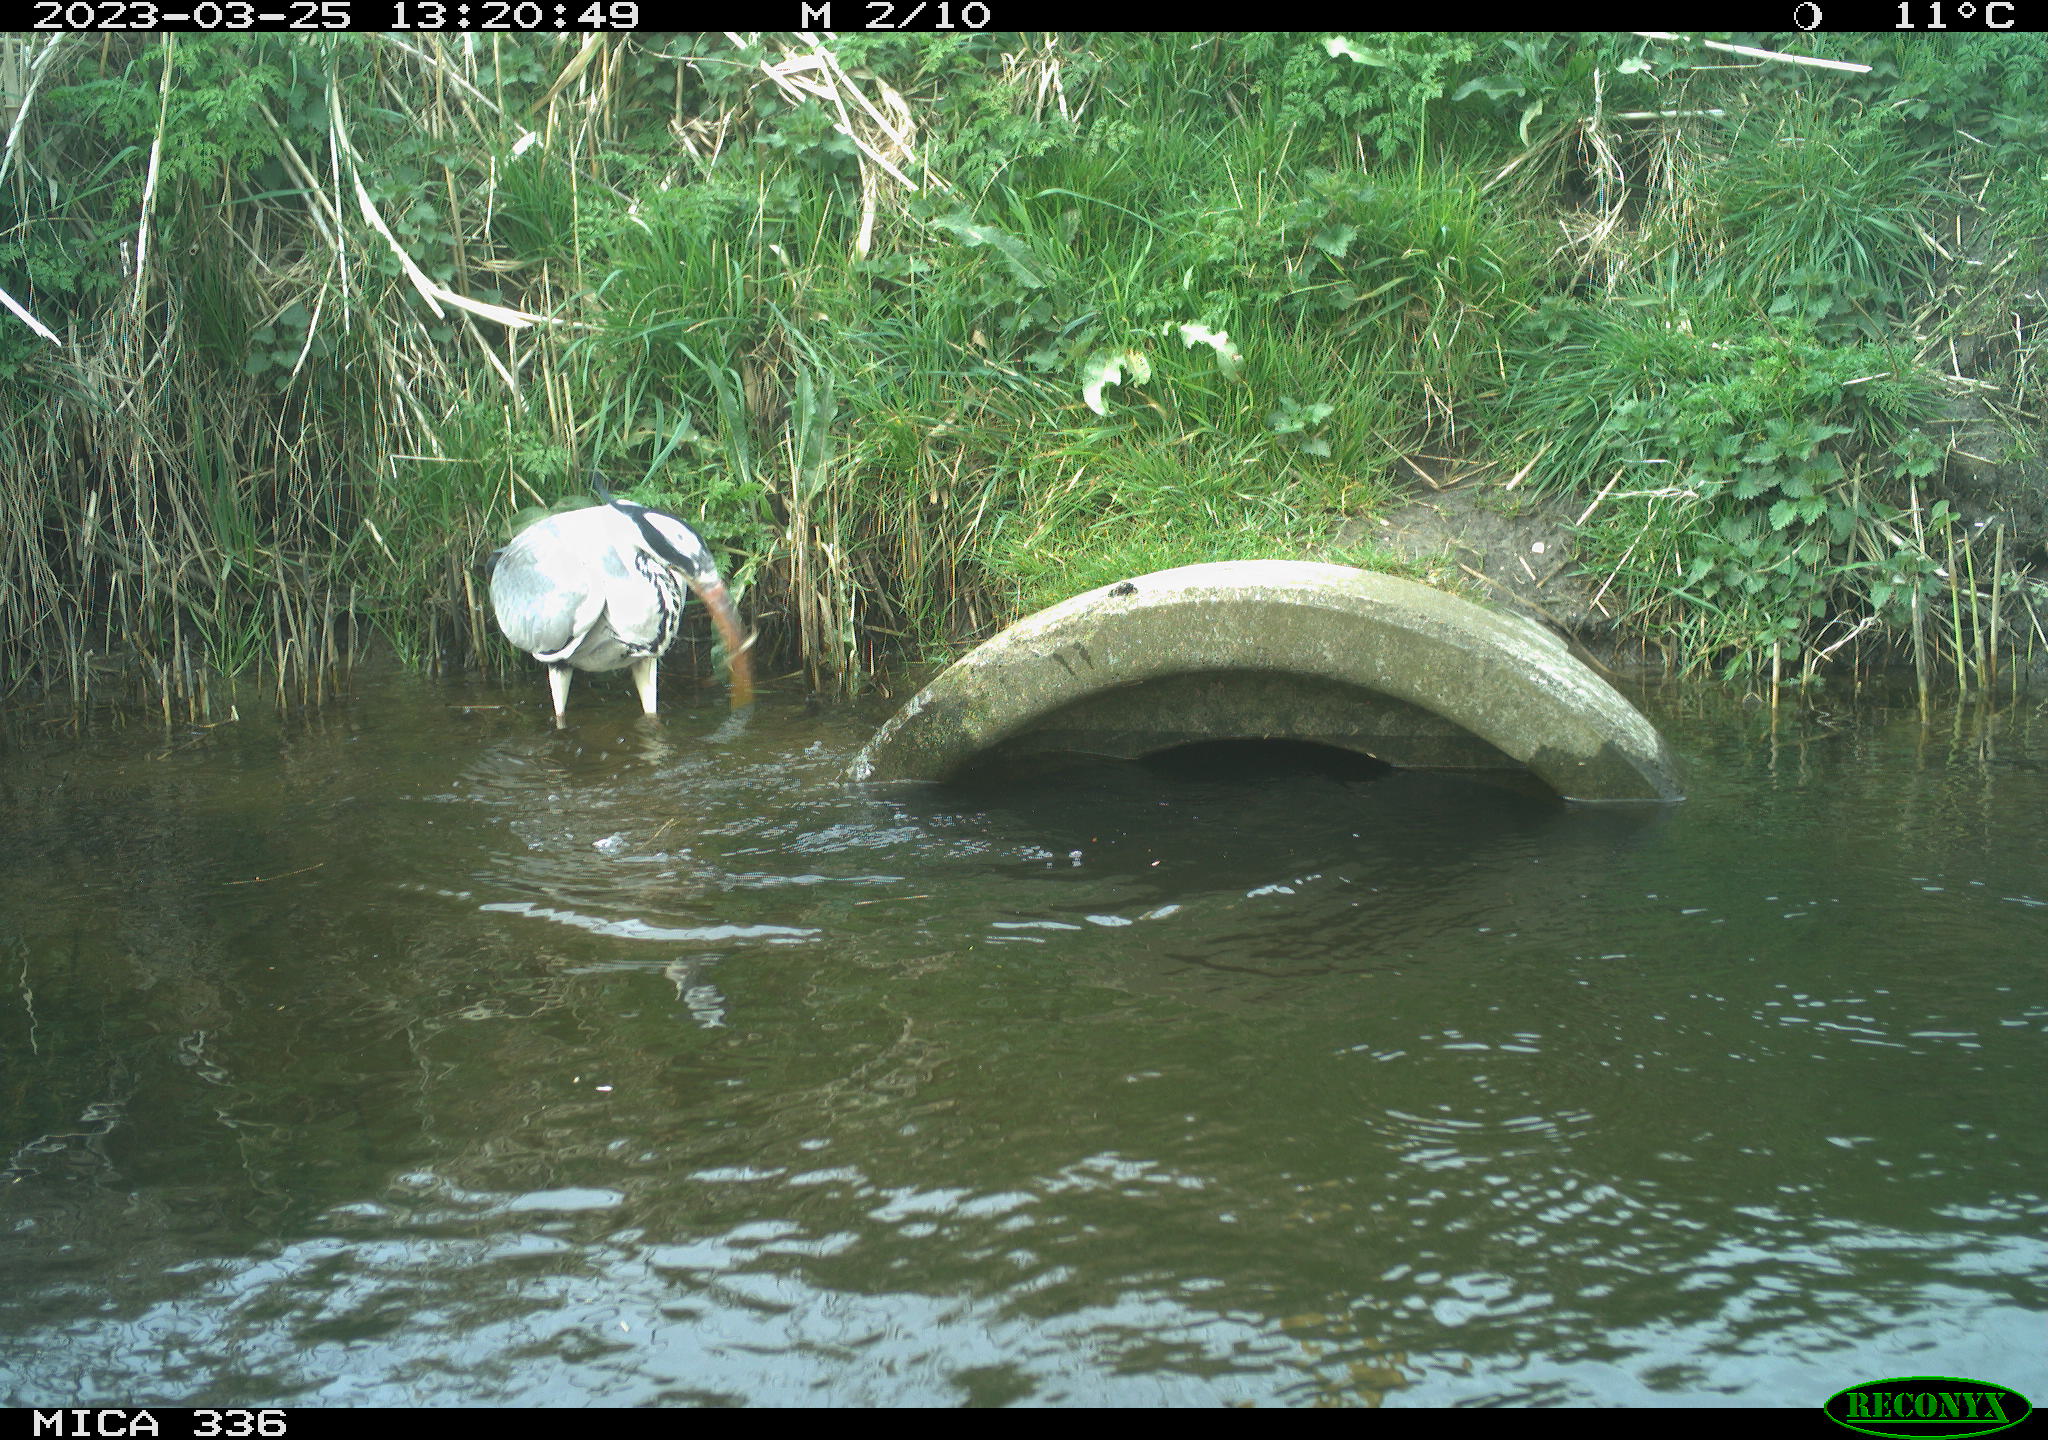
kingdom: Animalia
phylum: Chordata
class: Aves
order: Pelecaniformes
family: Ardeidae
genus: Ardea
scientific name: Ardea
